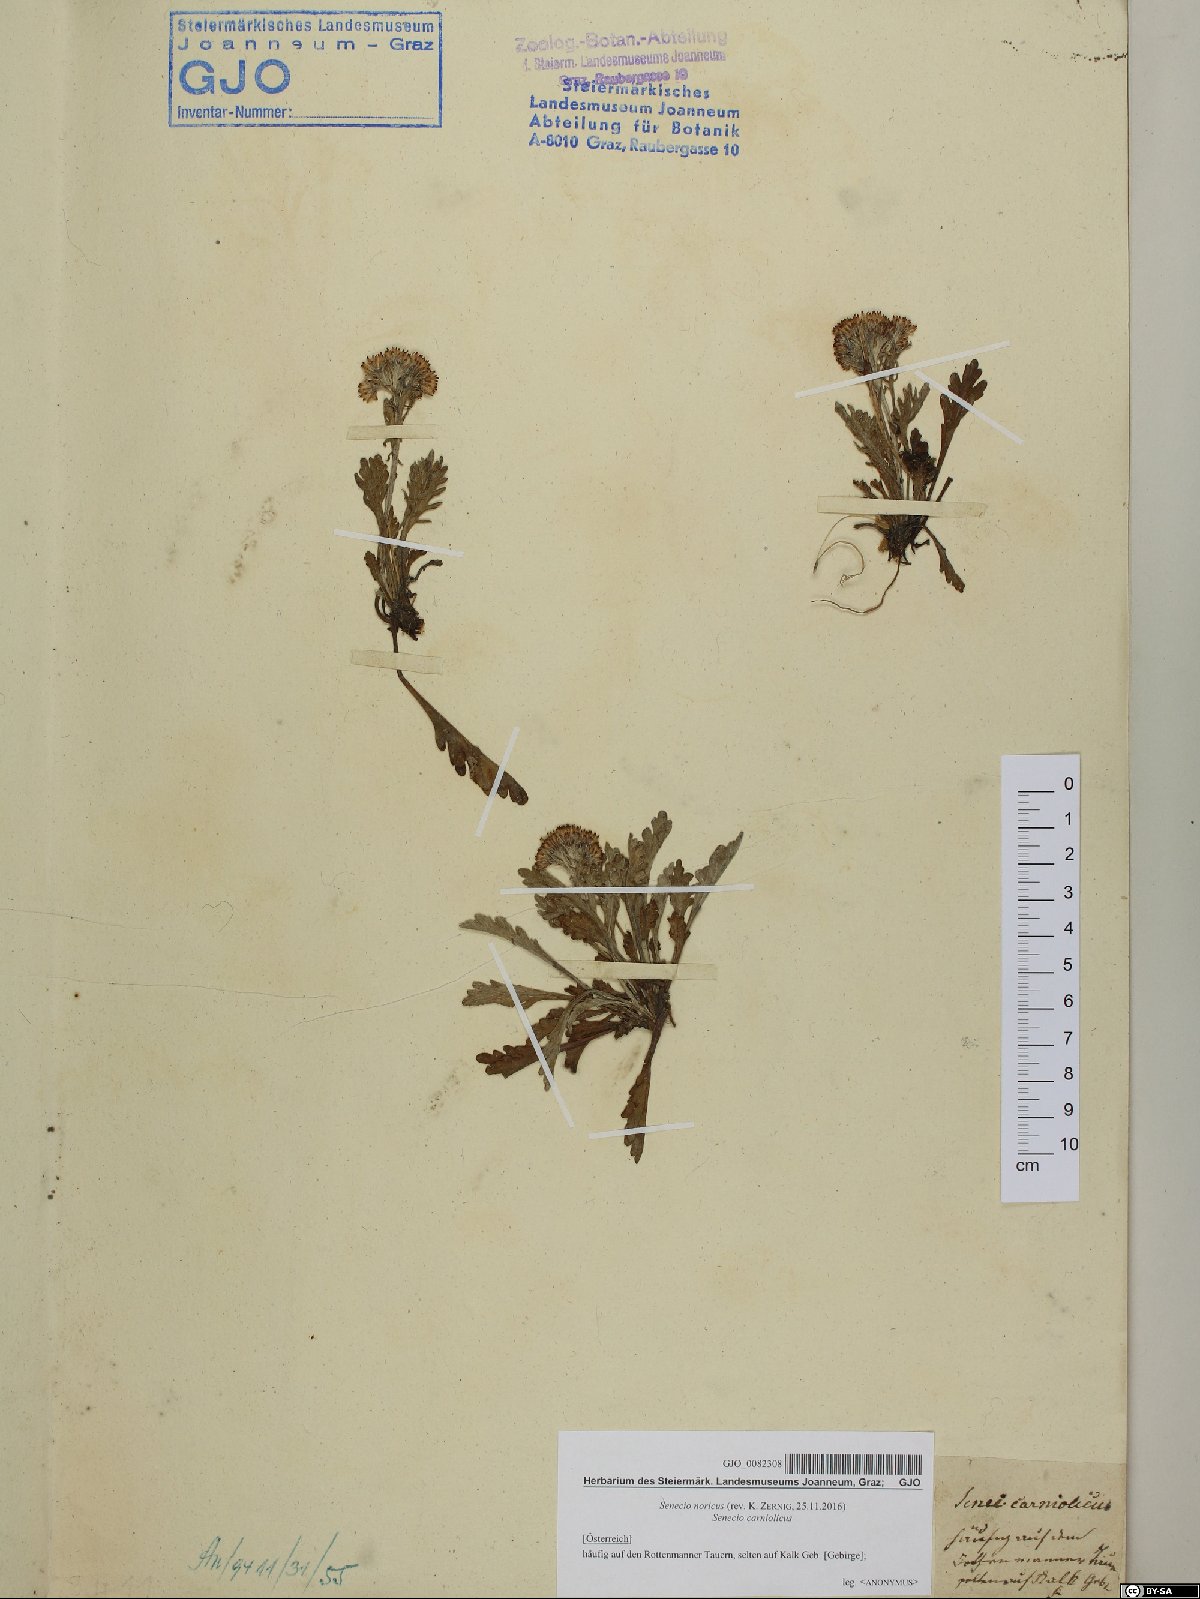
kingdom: Plantae
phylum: Tracheophyta
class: Magnoliopsida
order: Asterales
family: Asteraceae
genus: Jacobaea
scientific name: Jacobaea norica
